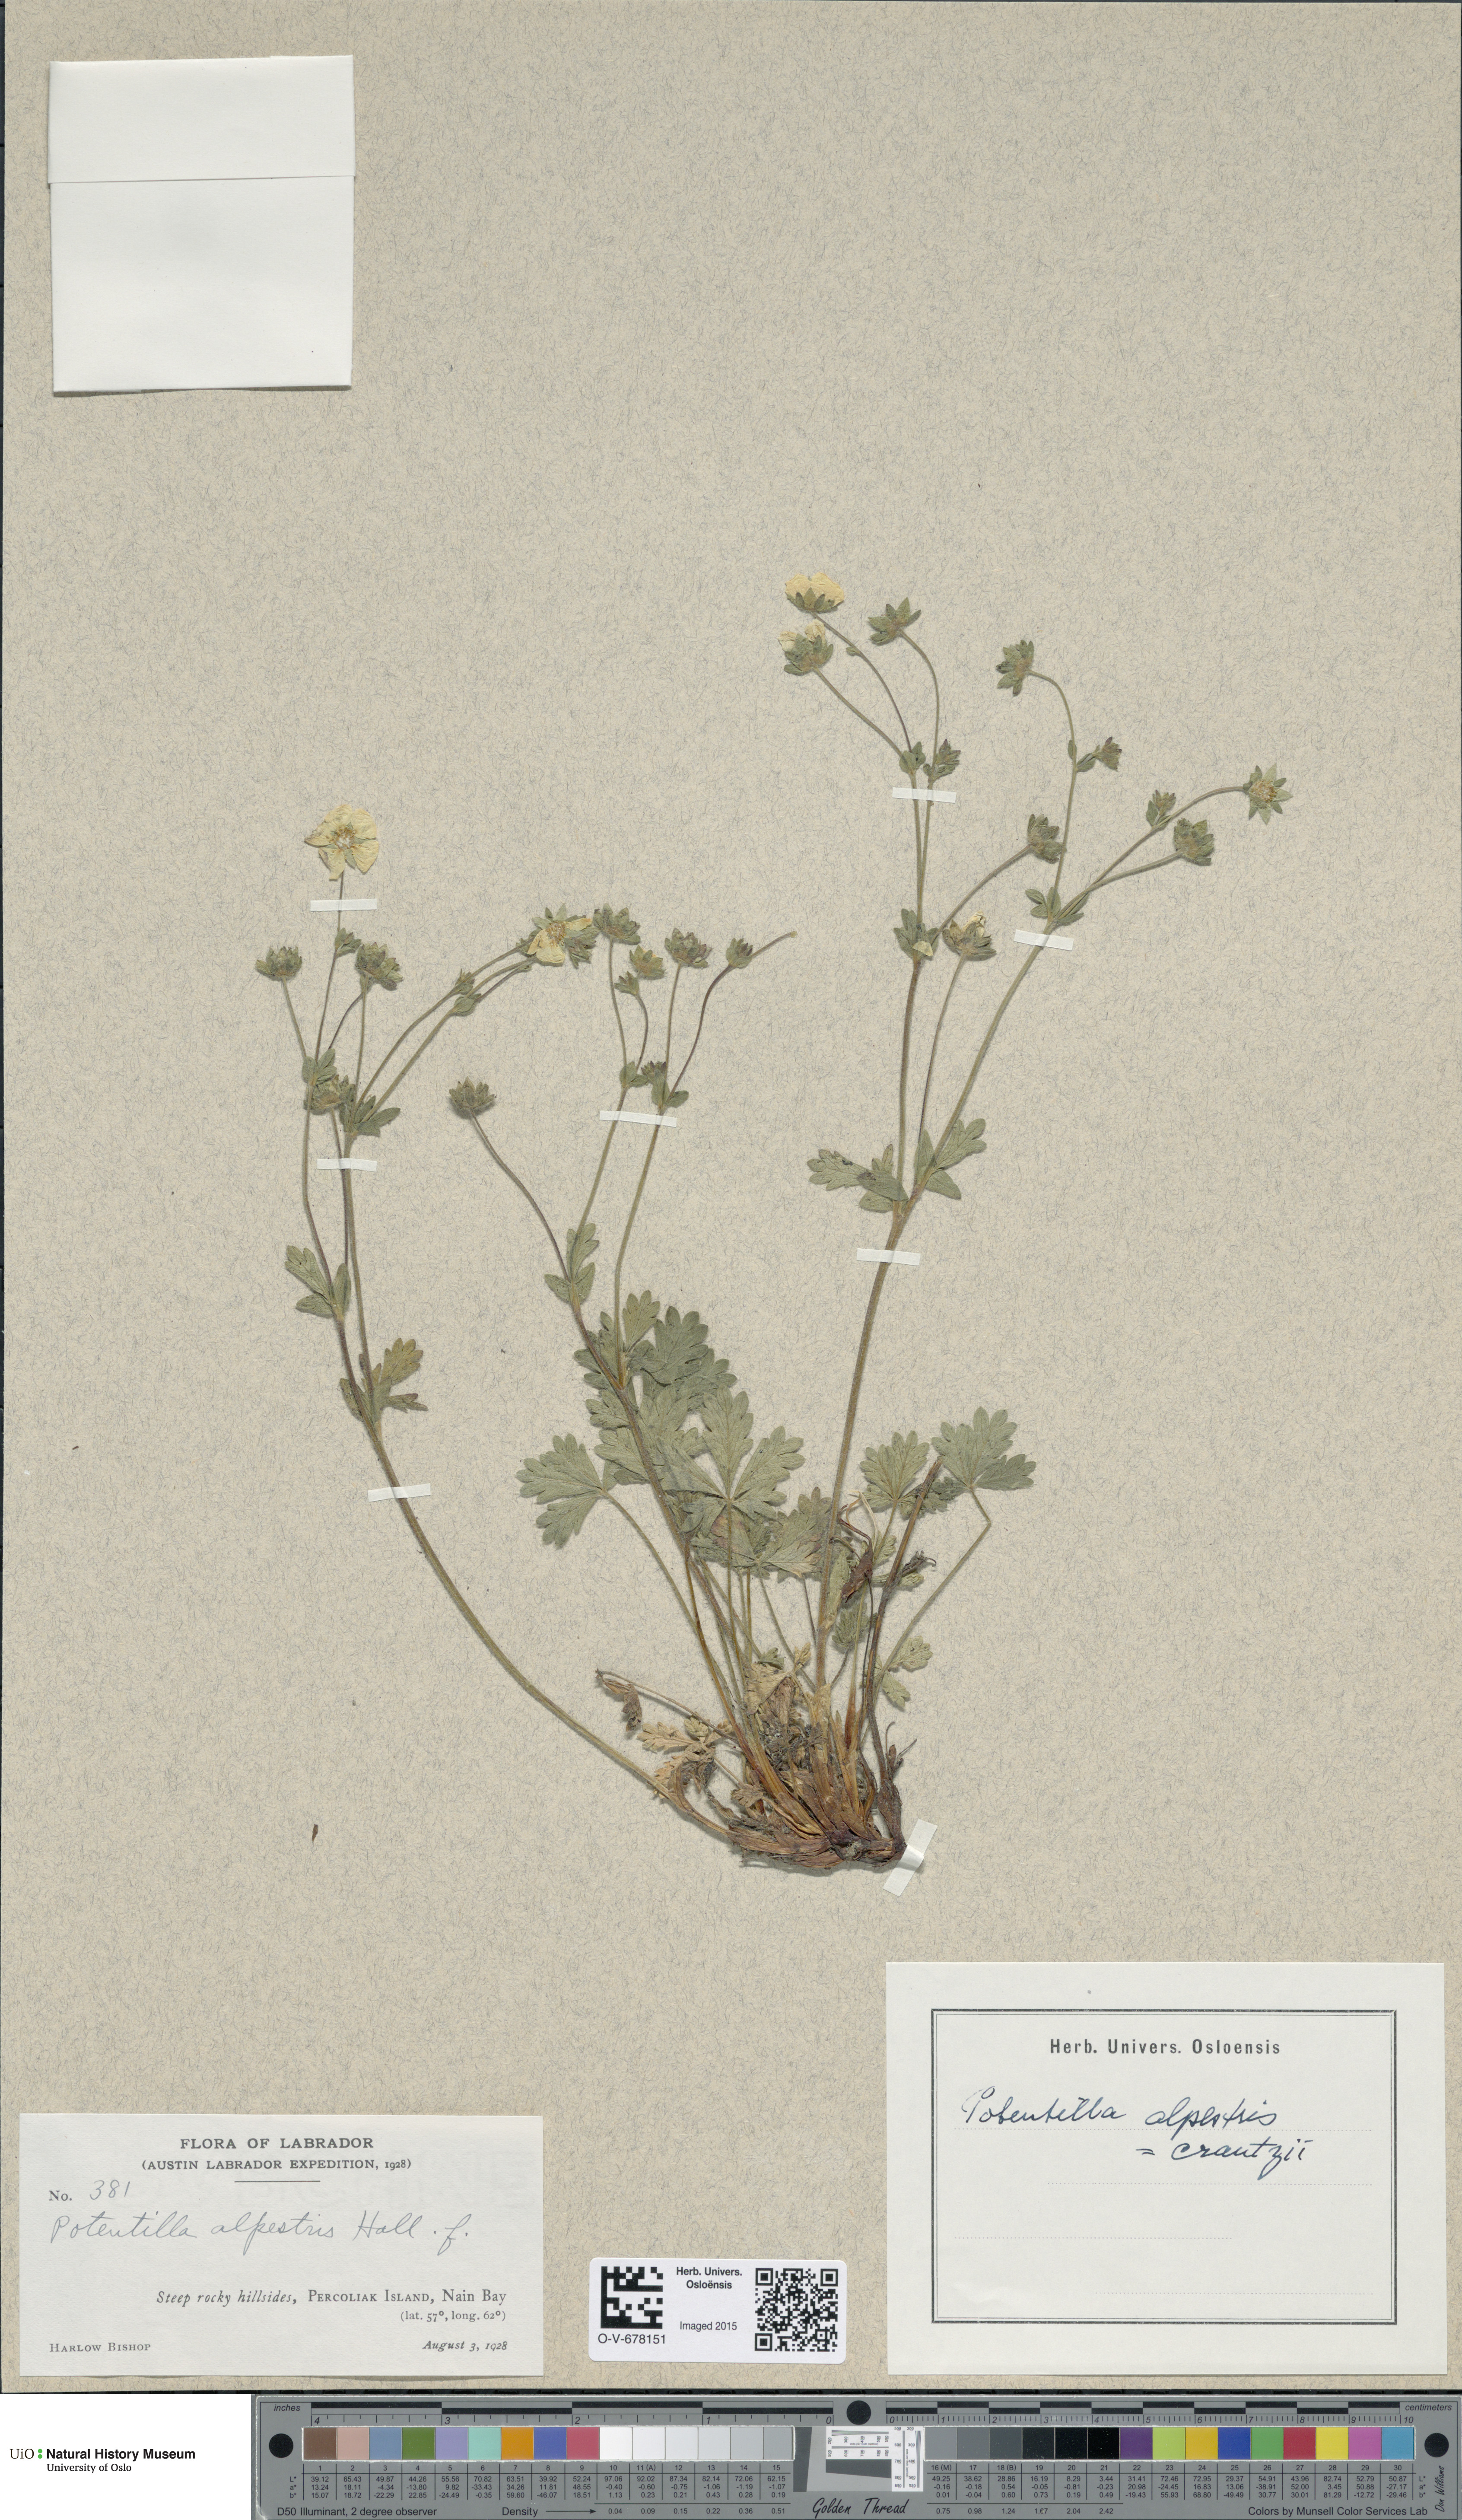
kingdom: Plantae
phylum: Tracheophyta
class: Magnoliopsida
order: Rosales
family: Rosaceae
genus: Potentilla
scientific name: Potentilla crantzii
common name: Alpine cinquefoil
